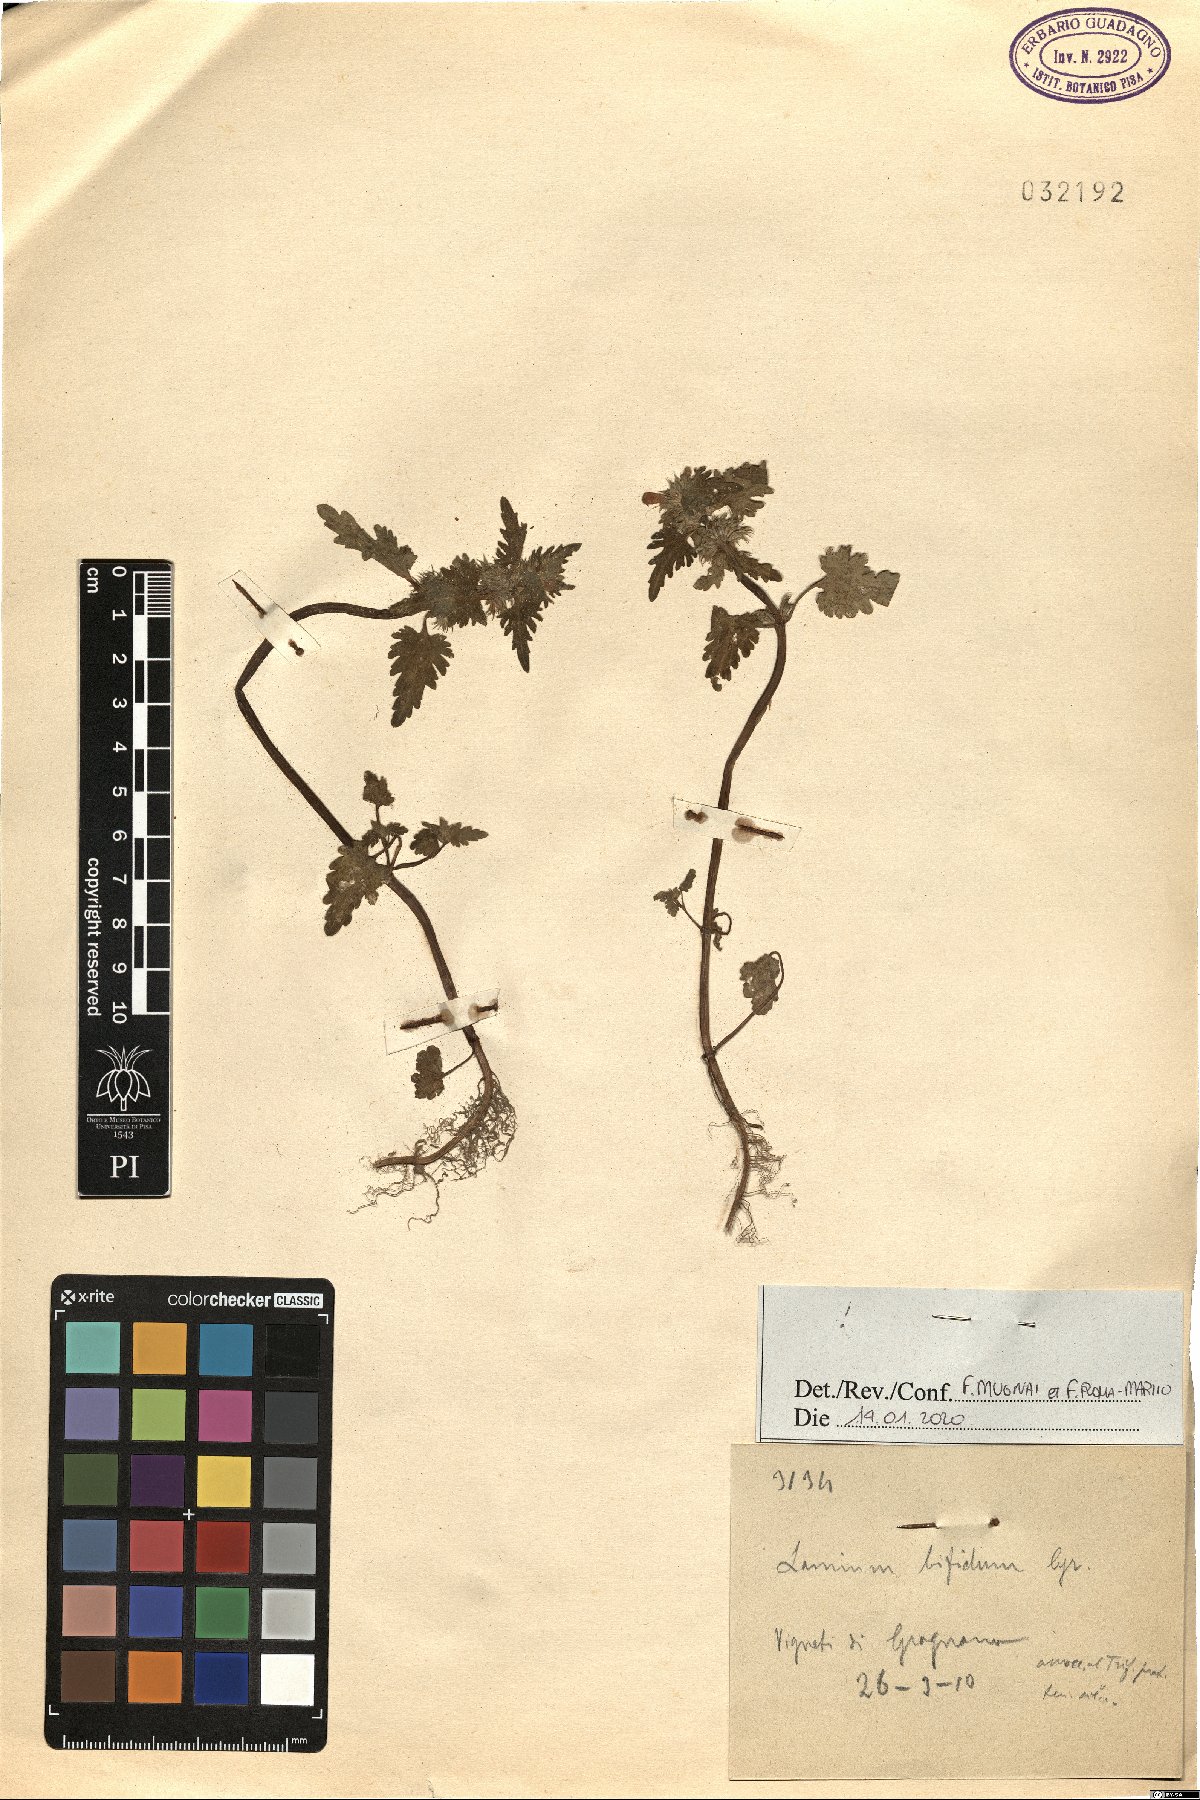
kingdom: Plantae
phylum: Tracheophyta
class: Magnoliopsida
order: Lamiales
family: Lamiaceae
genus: Lamium
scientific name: Lamium bifidum
